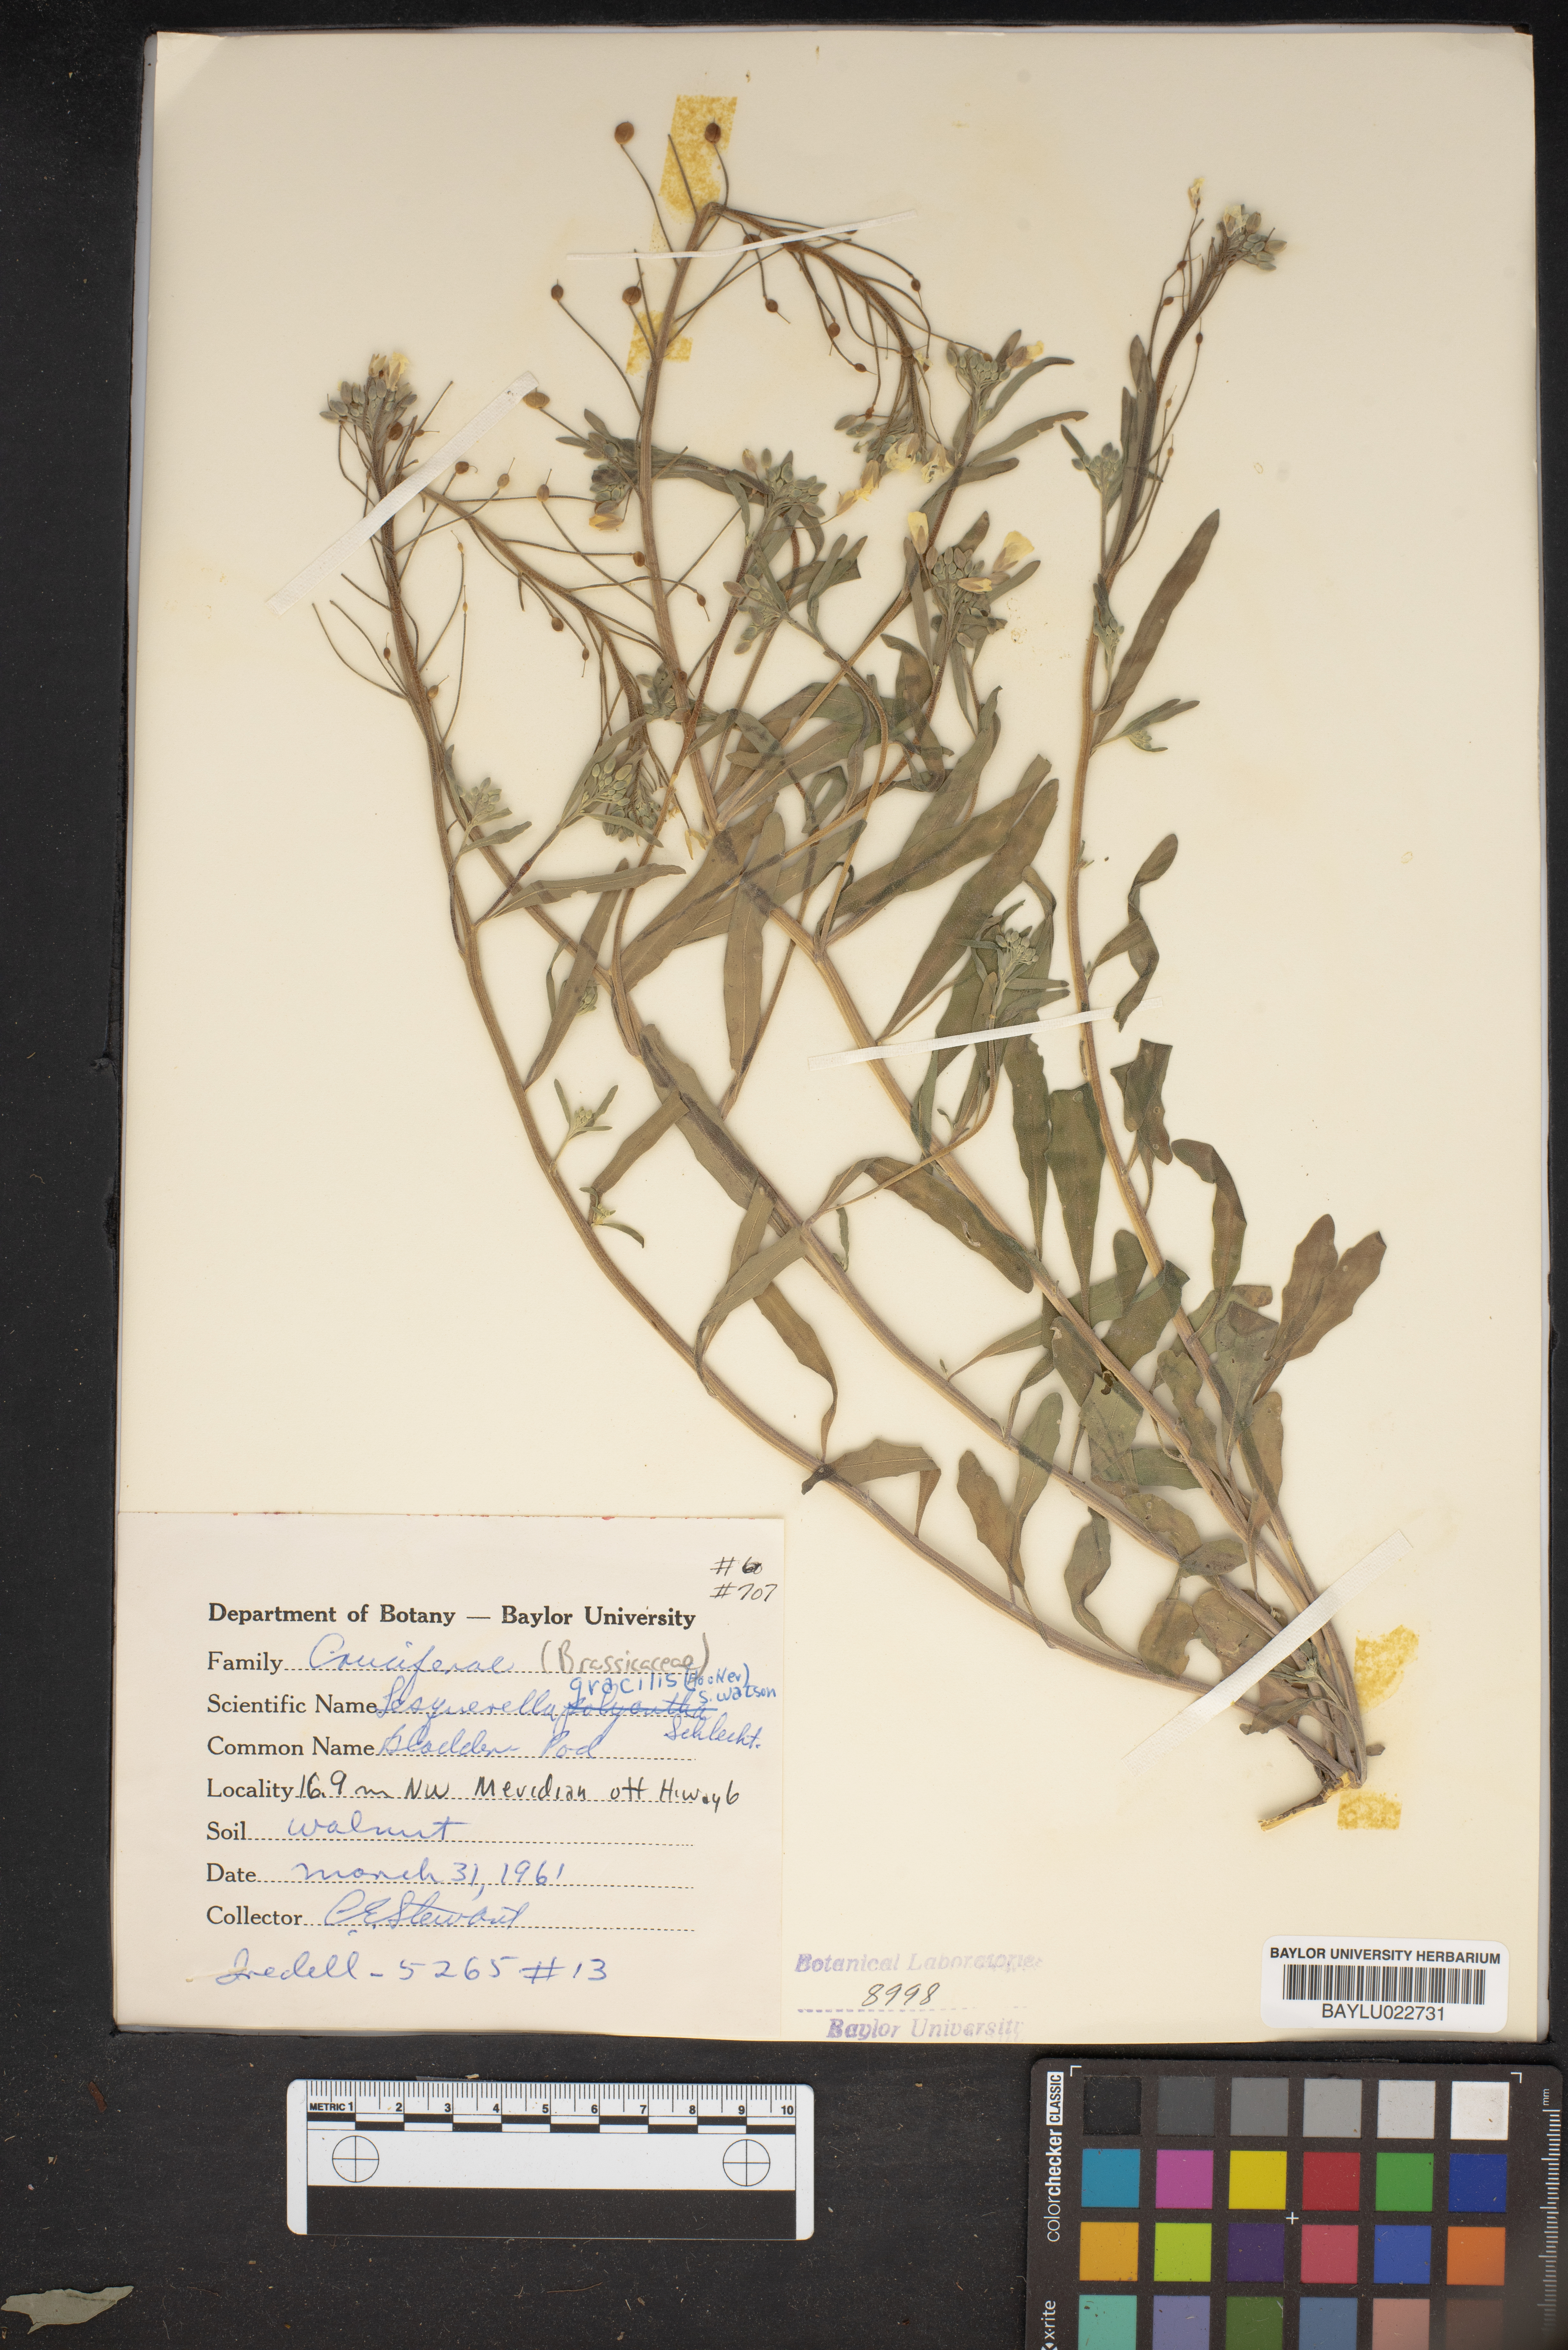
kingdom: Plantae
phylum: Tracheophyta
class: Magnoliopsida
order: Brassicales
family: Brassicaceae
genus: Physaria
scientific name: Physaria gracilis
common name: Spreading bladderpod
